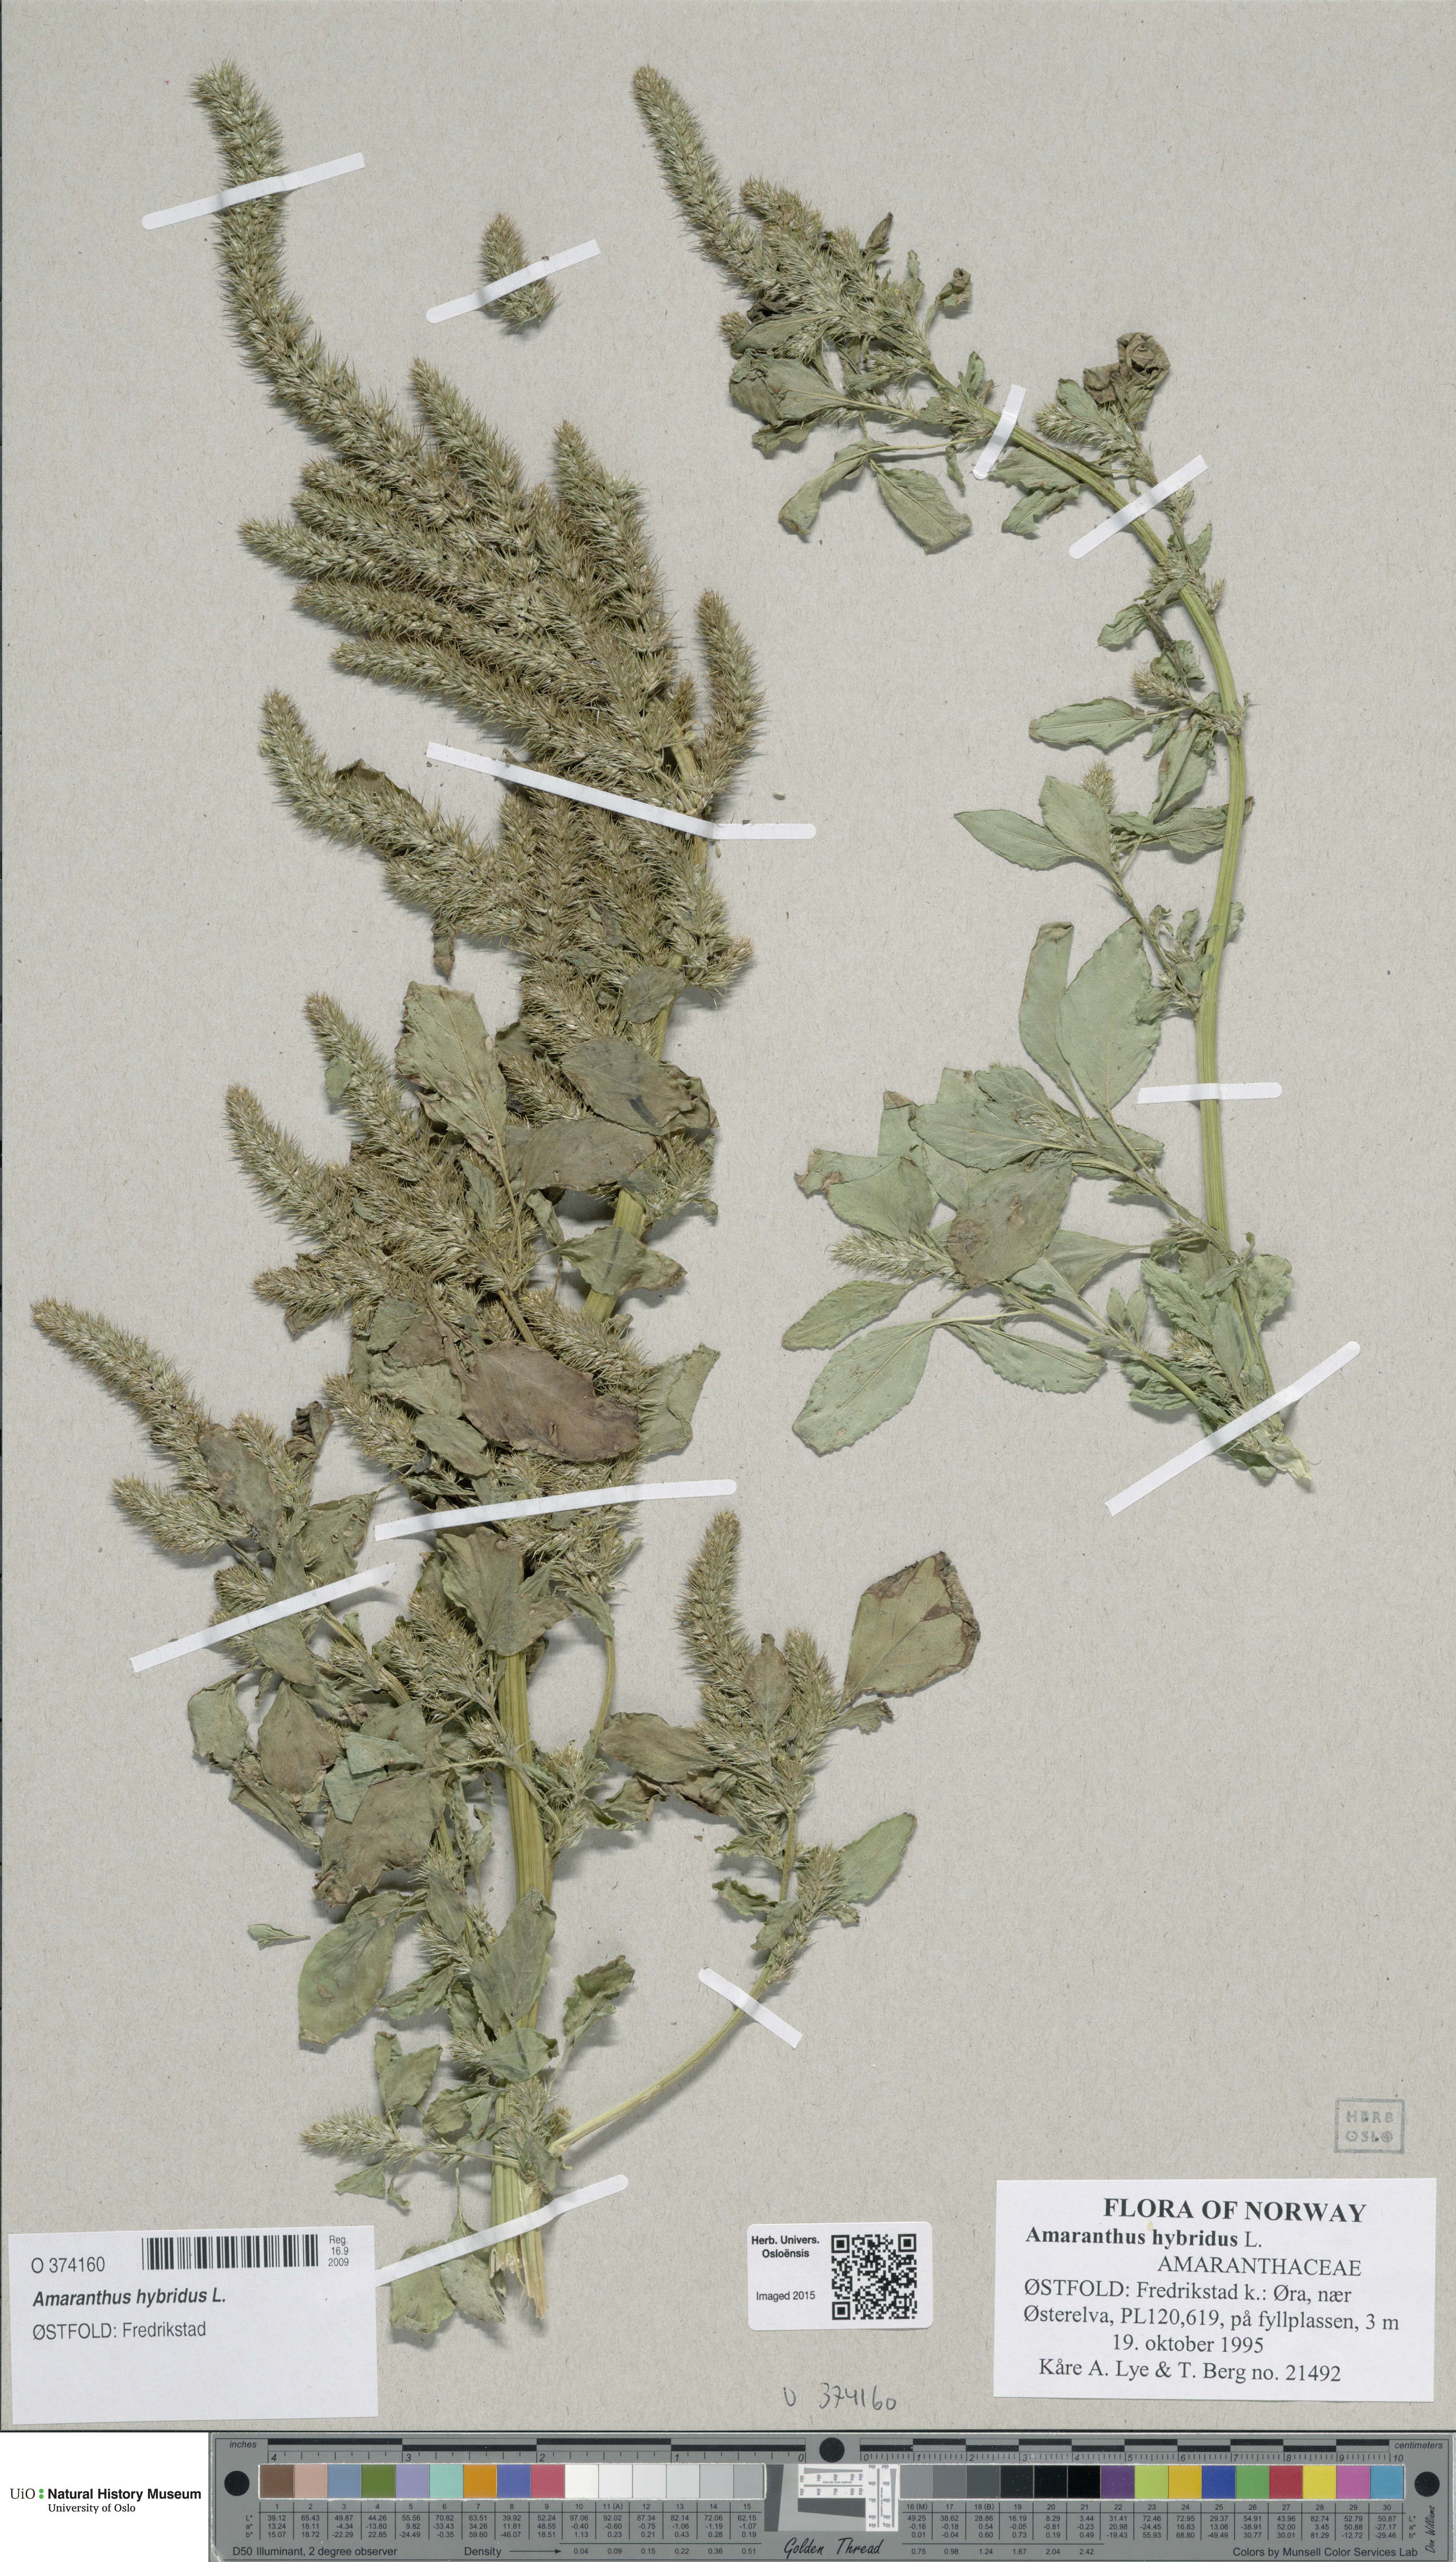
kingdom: Plantae
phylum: Tracheophyta
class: Magnoliopsida
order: Caryophyllales
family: Amaranthaceae
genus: Amaranthus
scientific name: Amaranthus hybridus
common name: Green amaranth
